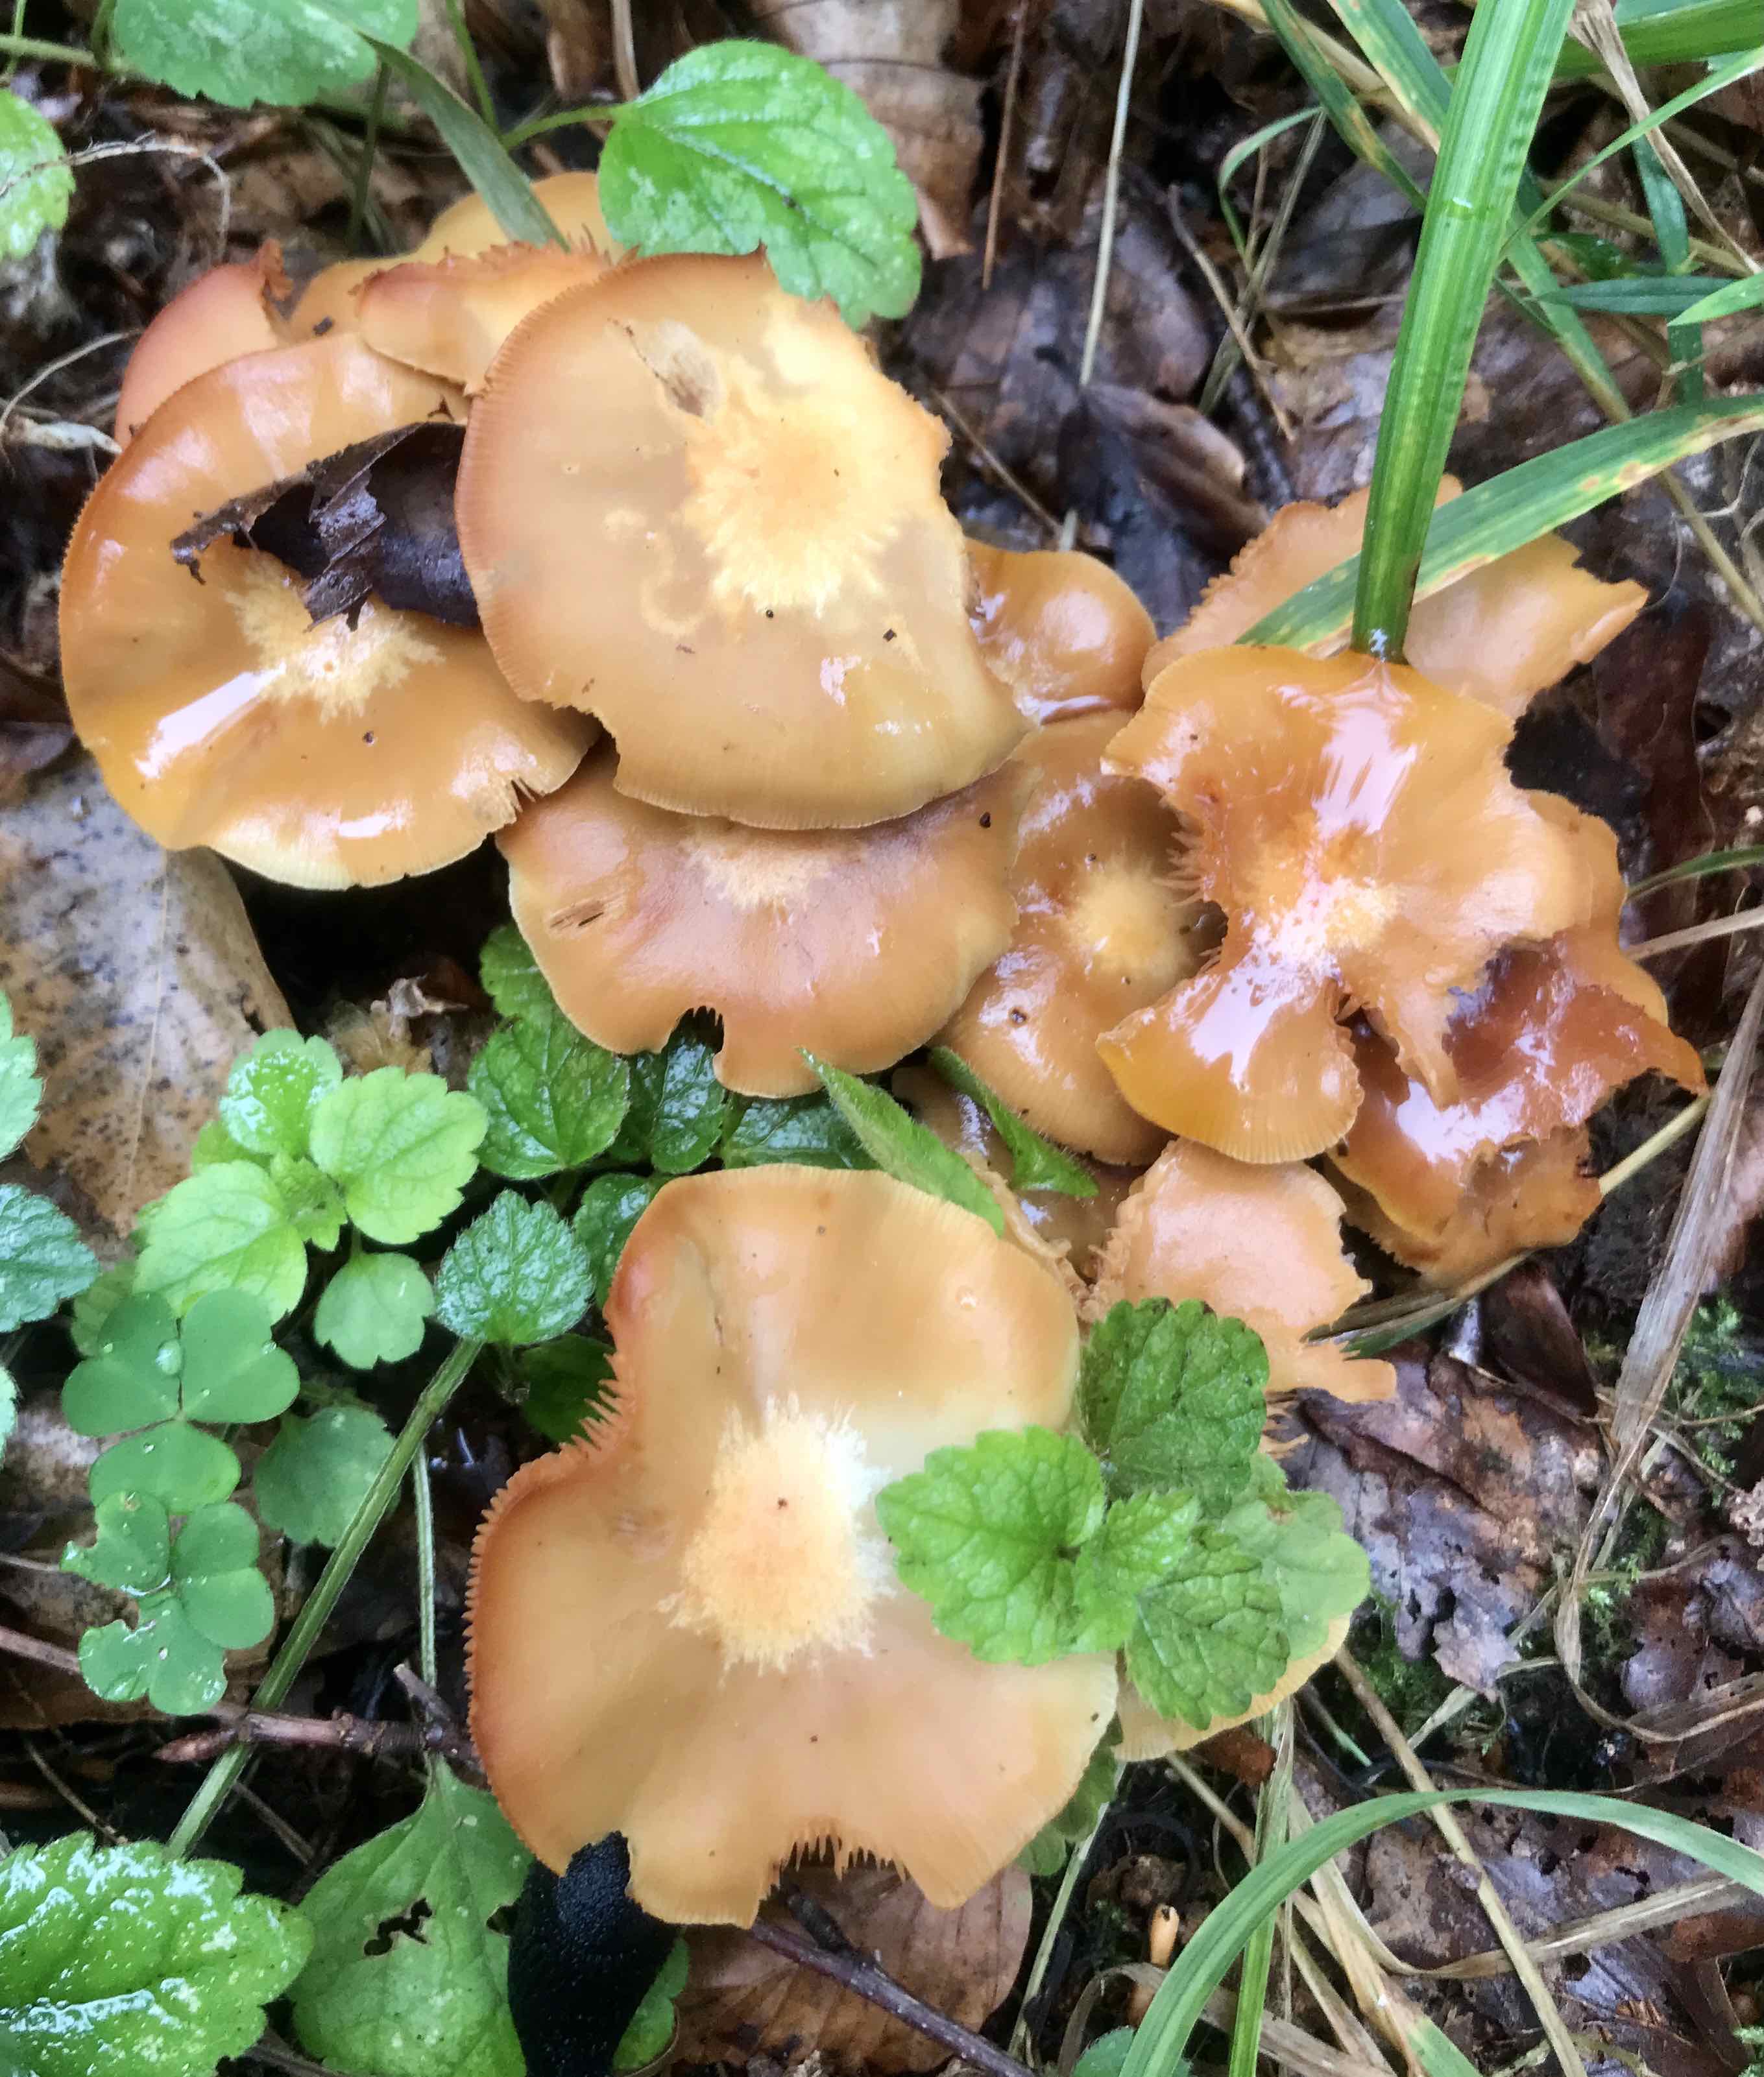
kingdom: Fungi
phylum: Basidiomycota
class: Agaricomycetes
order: Agaricales
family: Strophariaceae
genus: Kuehneromyces
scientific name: Kuehneromyces mutabilis
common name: foranderlig skælhat
